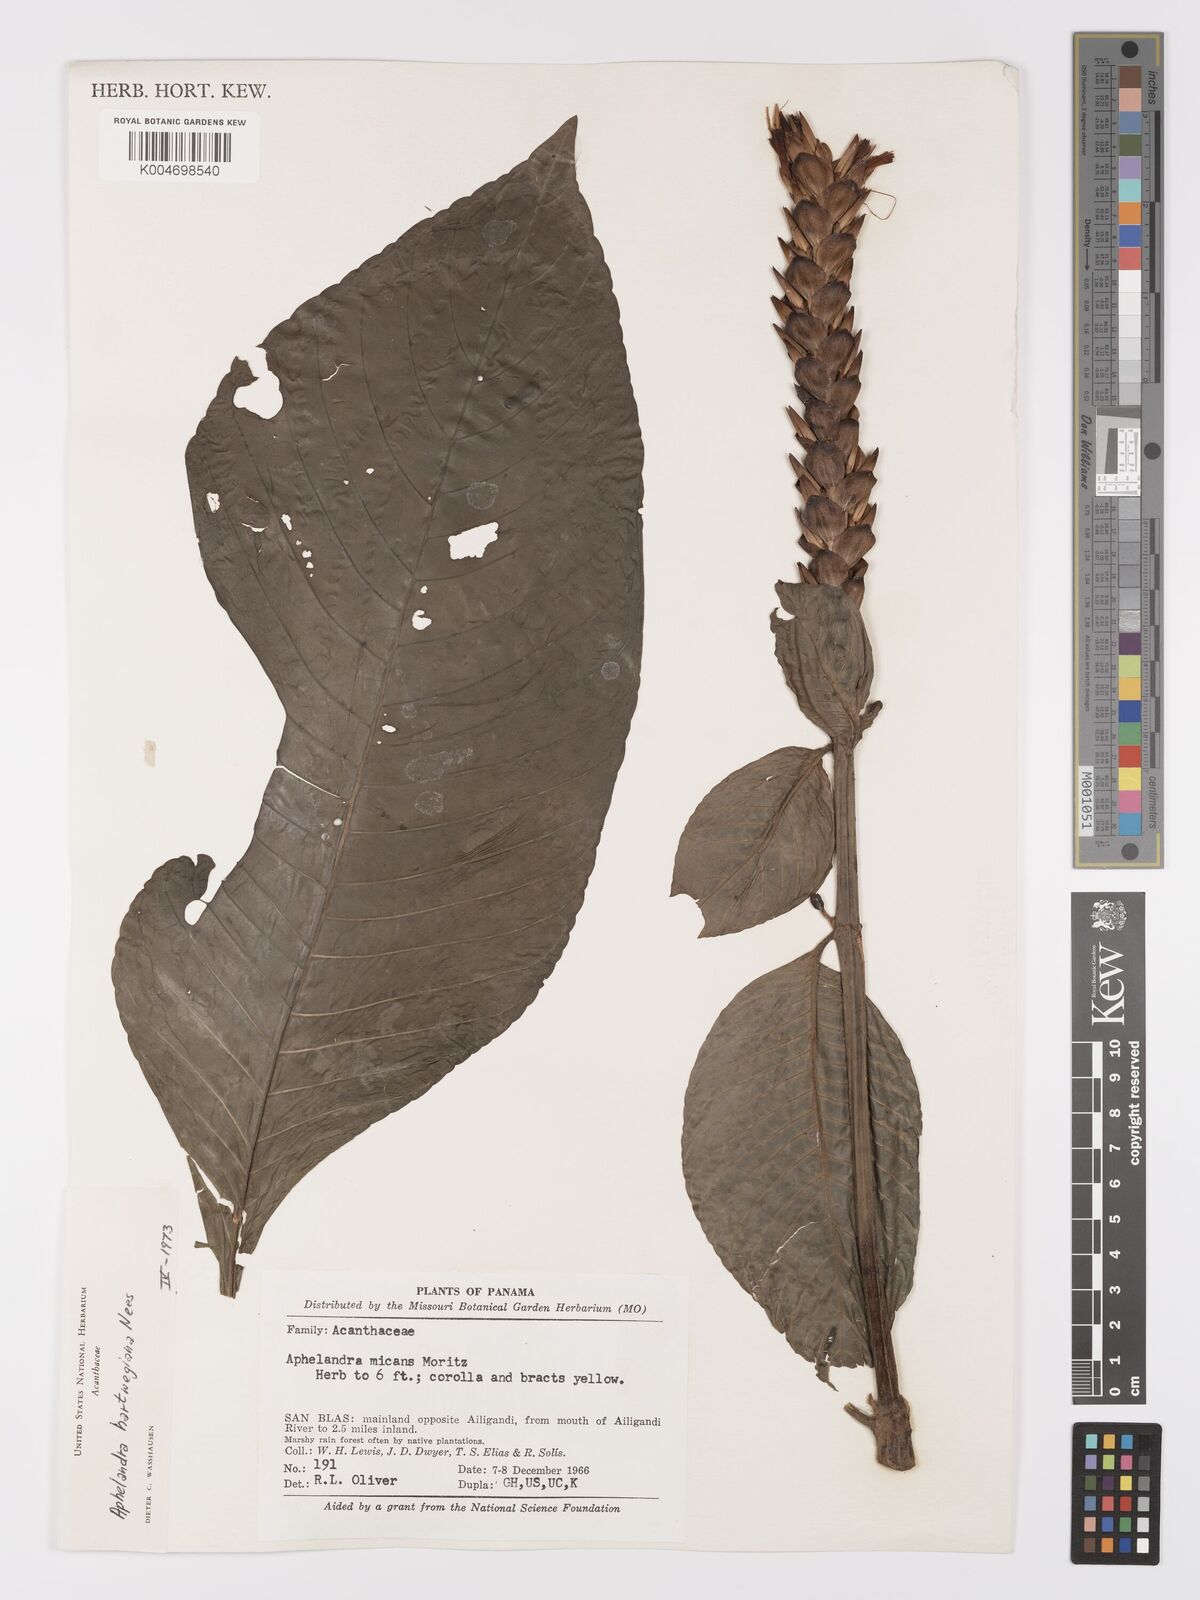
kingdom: Plantae
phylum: Tracheophyta
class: Magnoliopsida
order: Lamiales
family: Acanthaceae
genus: Aphelandra
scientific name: Aphelandra hartwegiana
